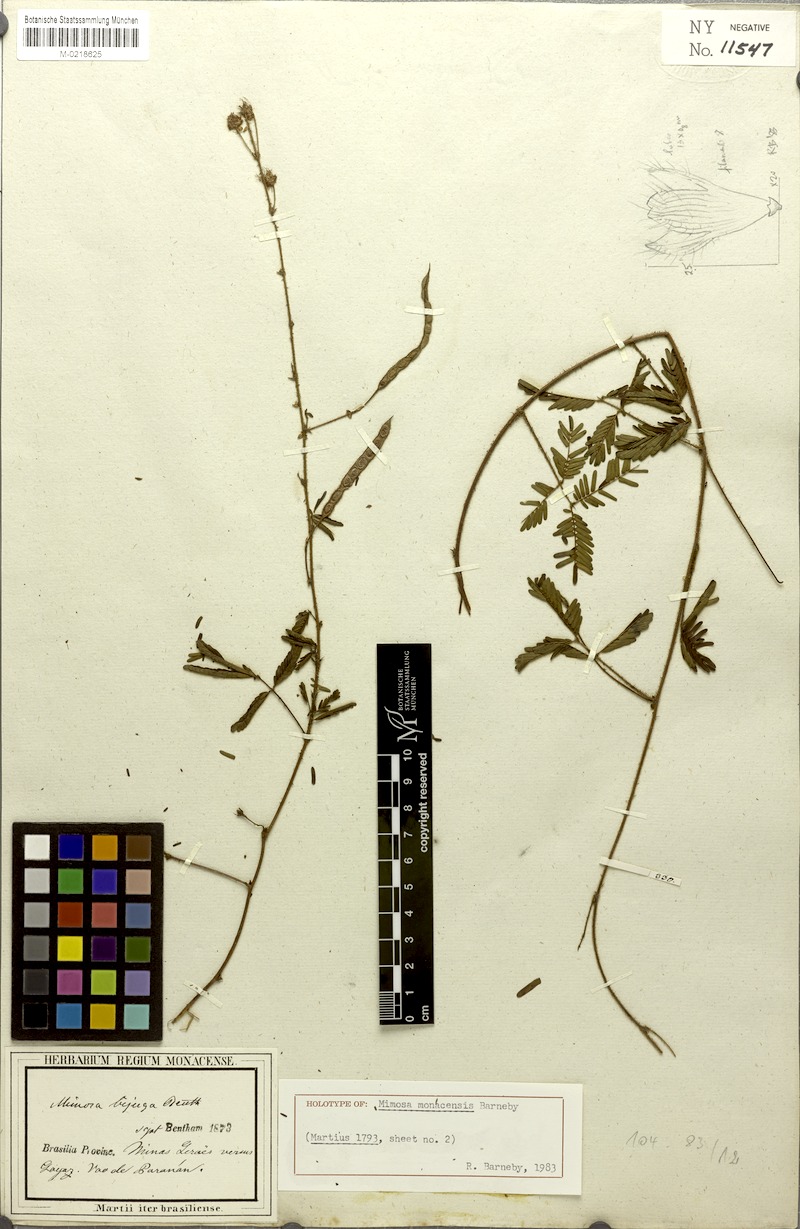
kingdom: Plantae
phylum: Tracheophyta
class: Magnoliopsida
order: Fabales
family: Fabaceae
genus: Mimosa
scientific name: Mimosa monacensis
